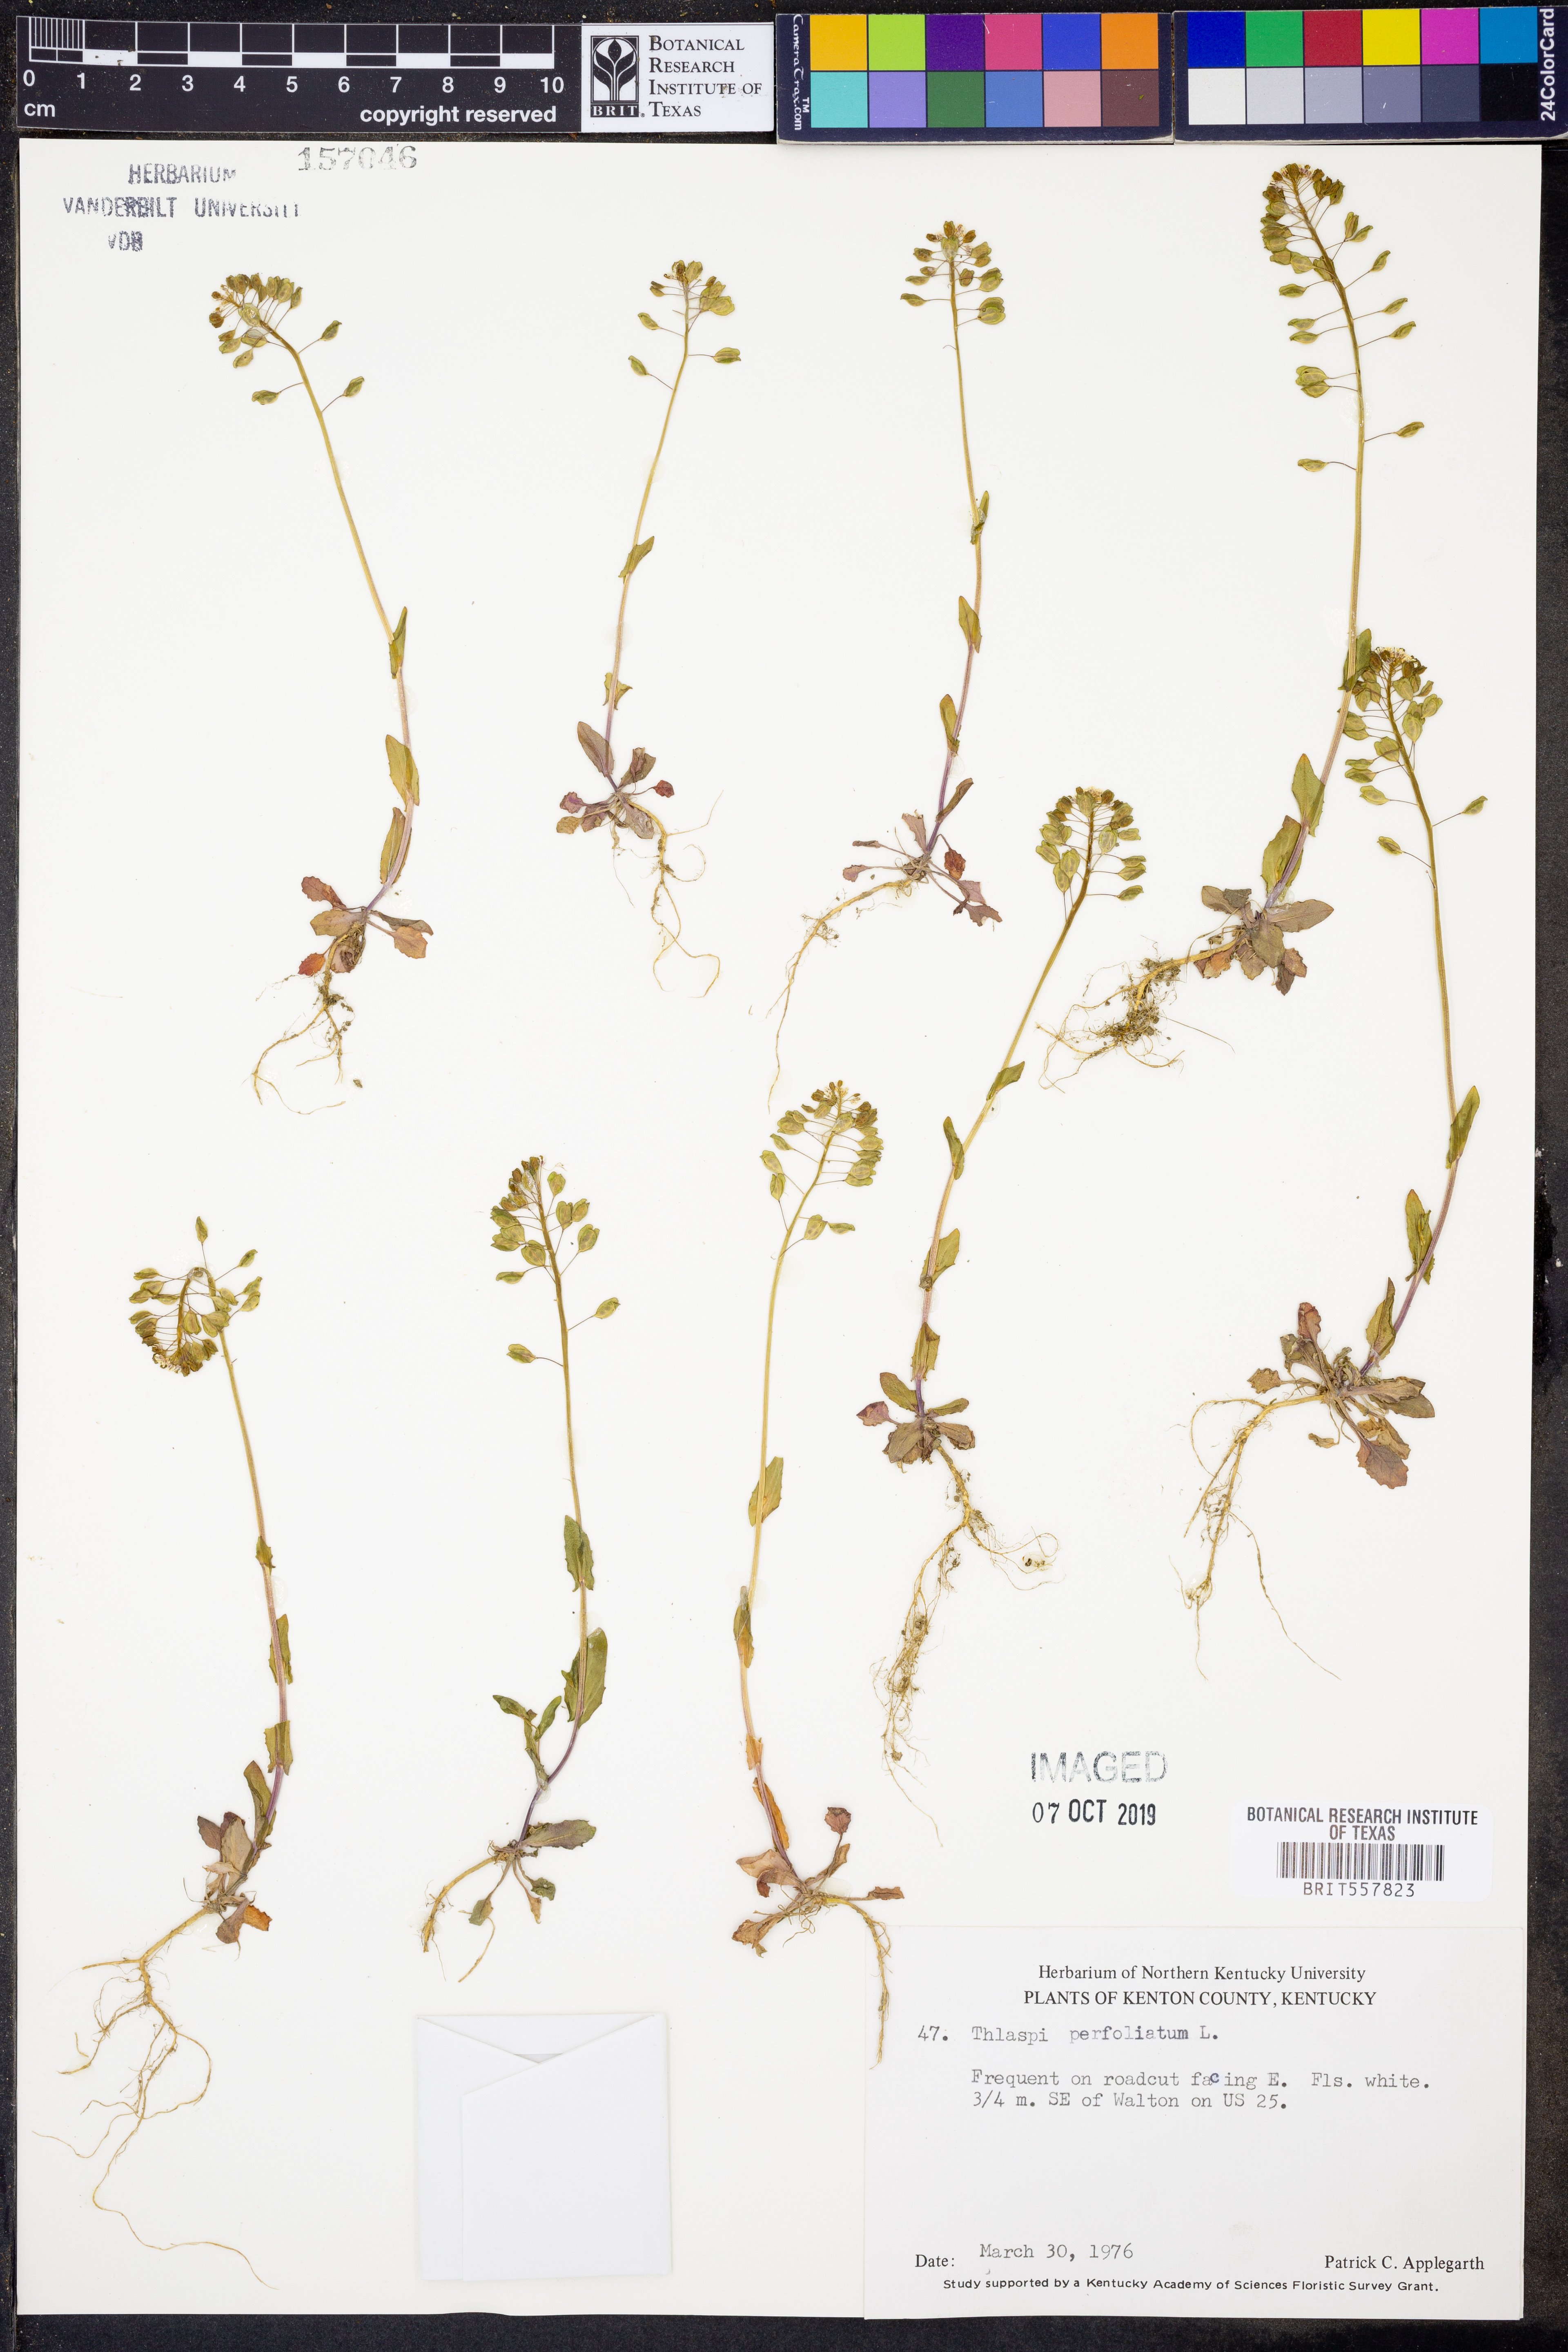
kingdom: Plantae
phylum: Tracheophyta
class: Magnoliopsida
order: Brassicales
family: Brassicaceae
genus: Noccaea
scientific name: Noccaea perfoliata
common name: Perfoliate pennycress
